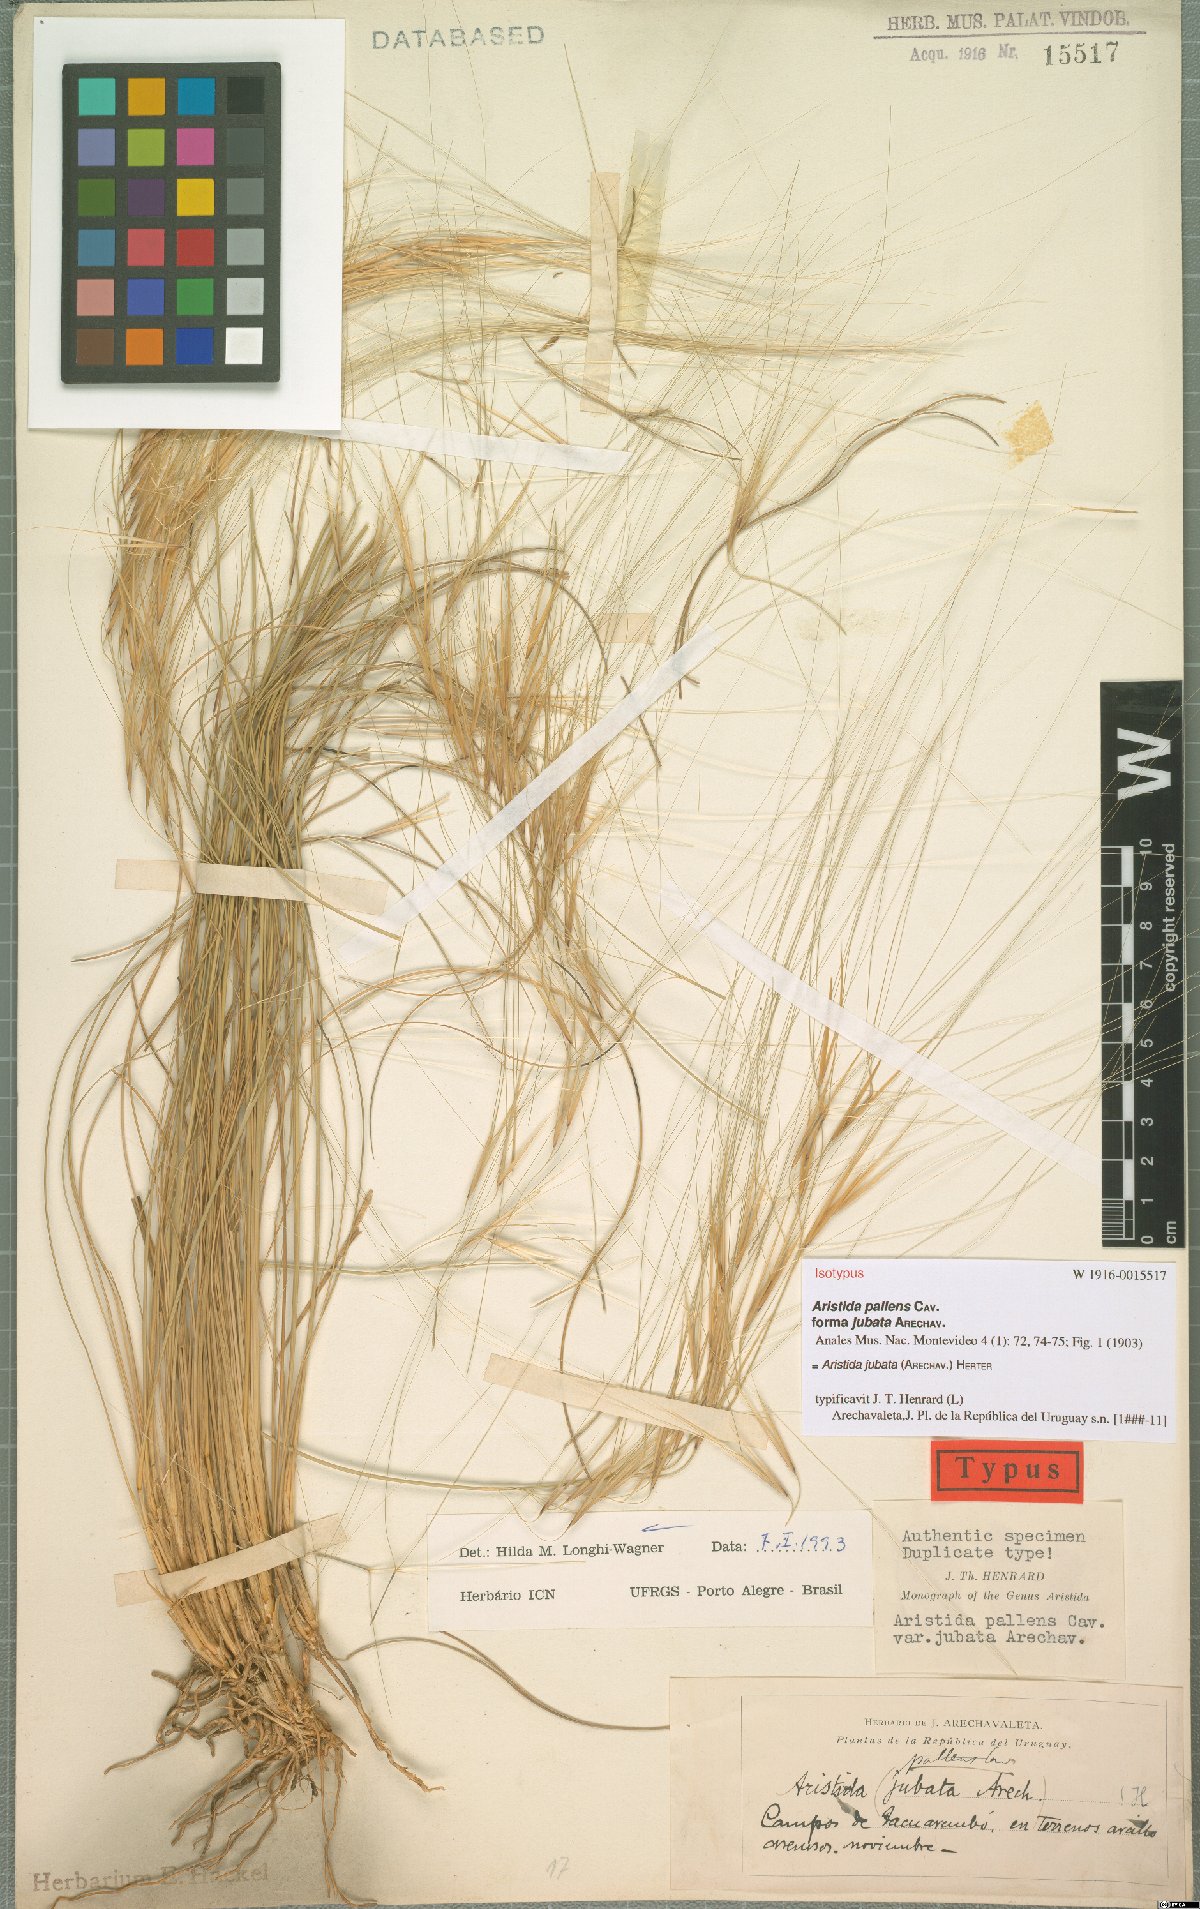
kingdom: Plantae
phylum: Tracheophyta
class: Liliopsida
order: Poales
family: Poaceae
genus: Aristida
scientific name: Aristida jubata
